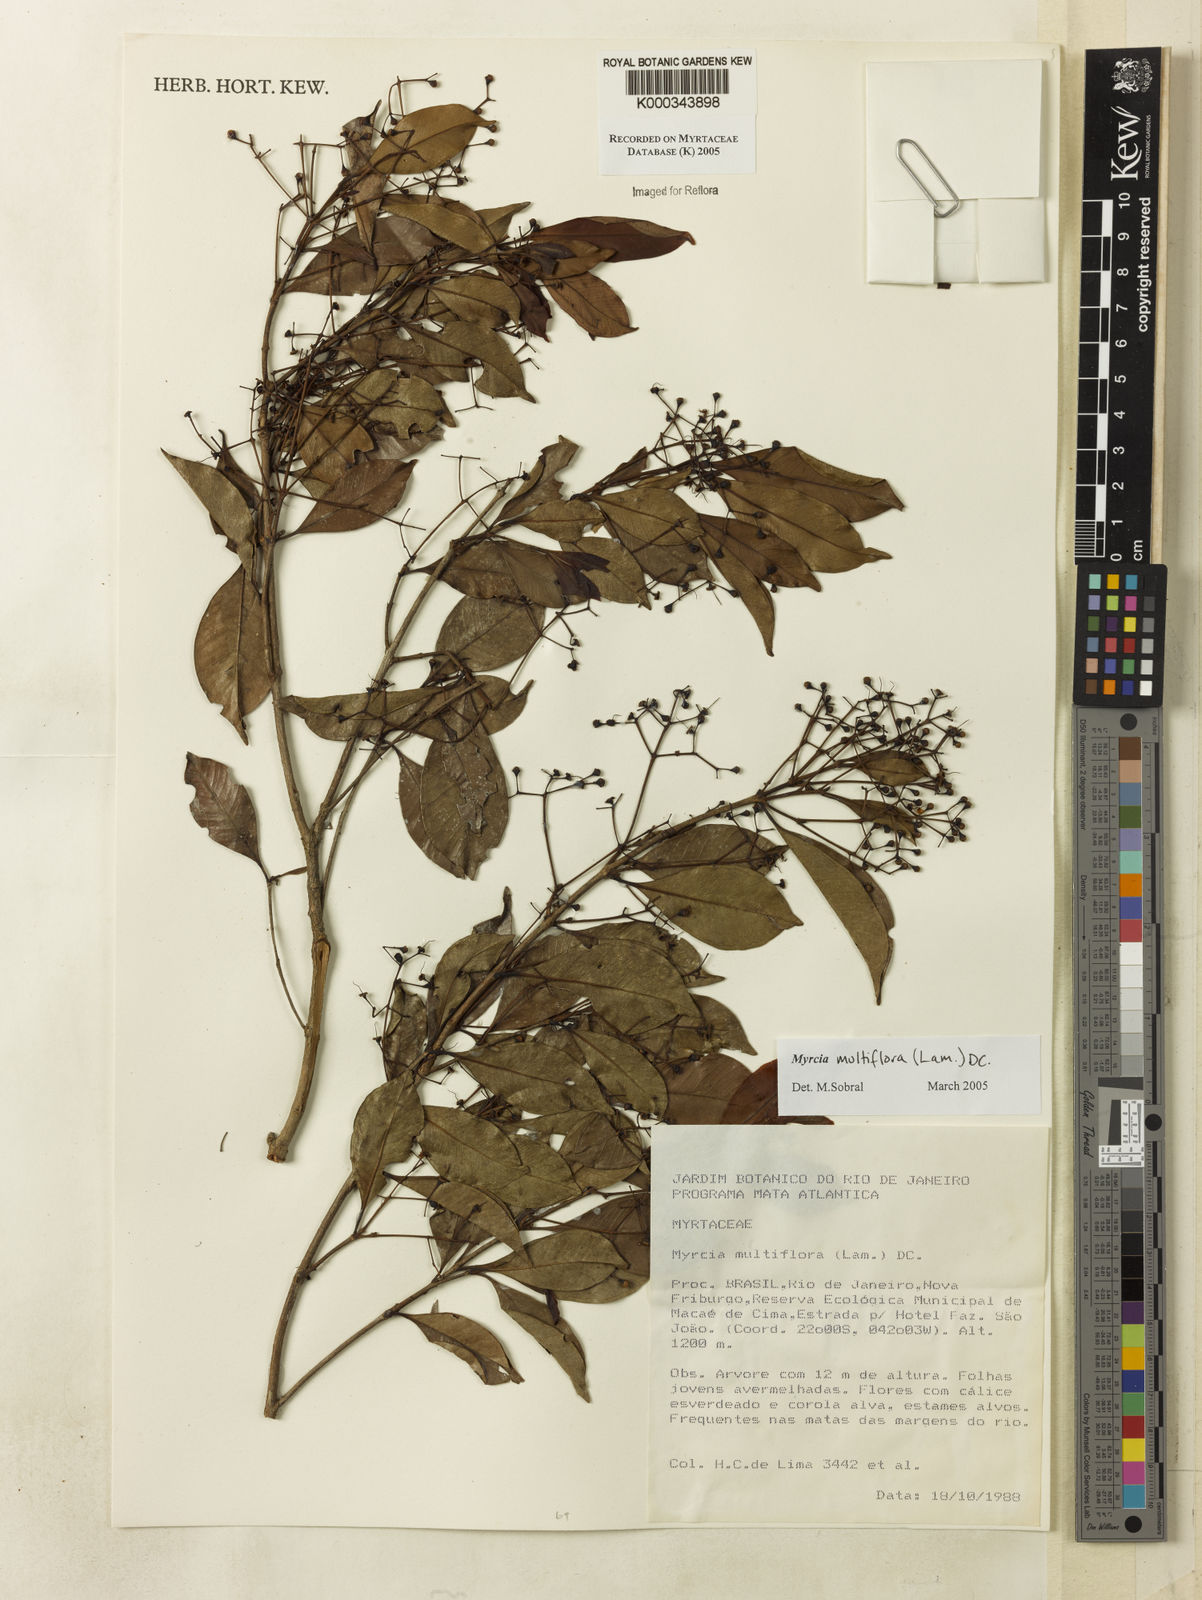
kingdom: Plantae
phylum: Tracheophyta
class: Magnoliopsida
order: Myrtales
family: Myrtaceae
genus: Myrcia
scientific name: Myrcia multiflora
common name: Pedra hume
